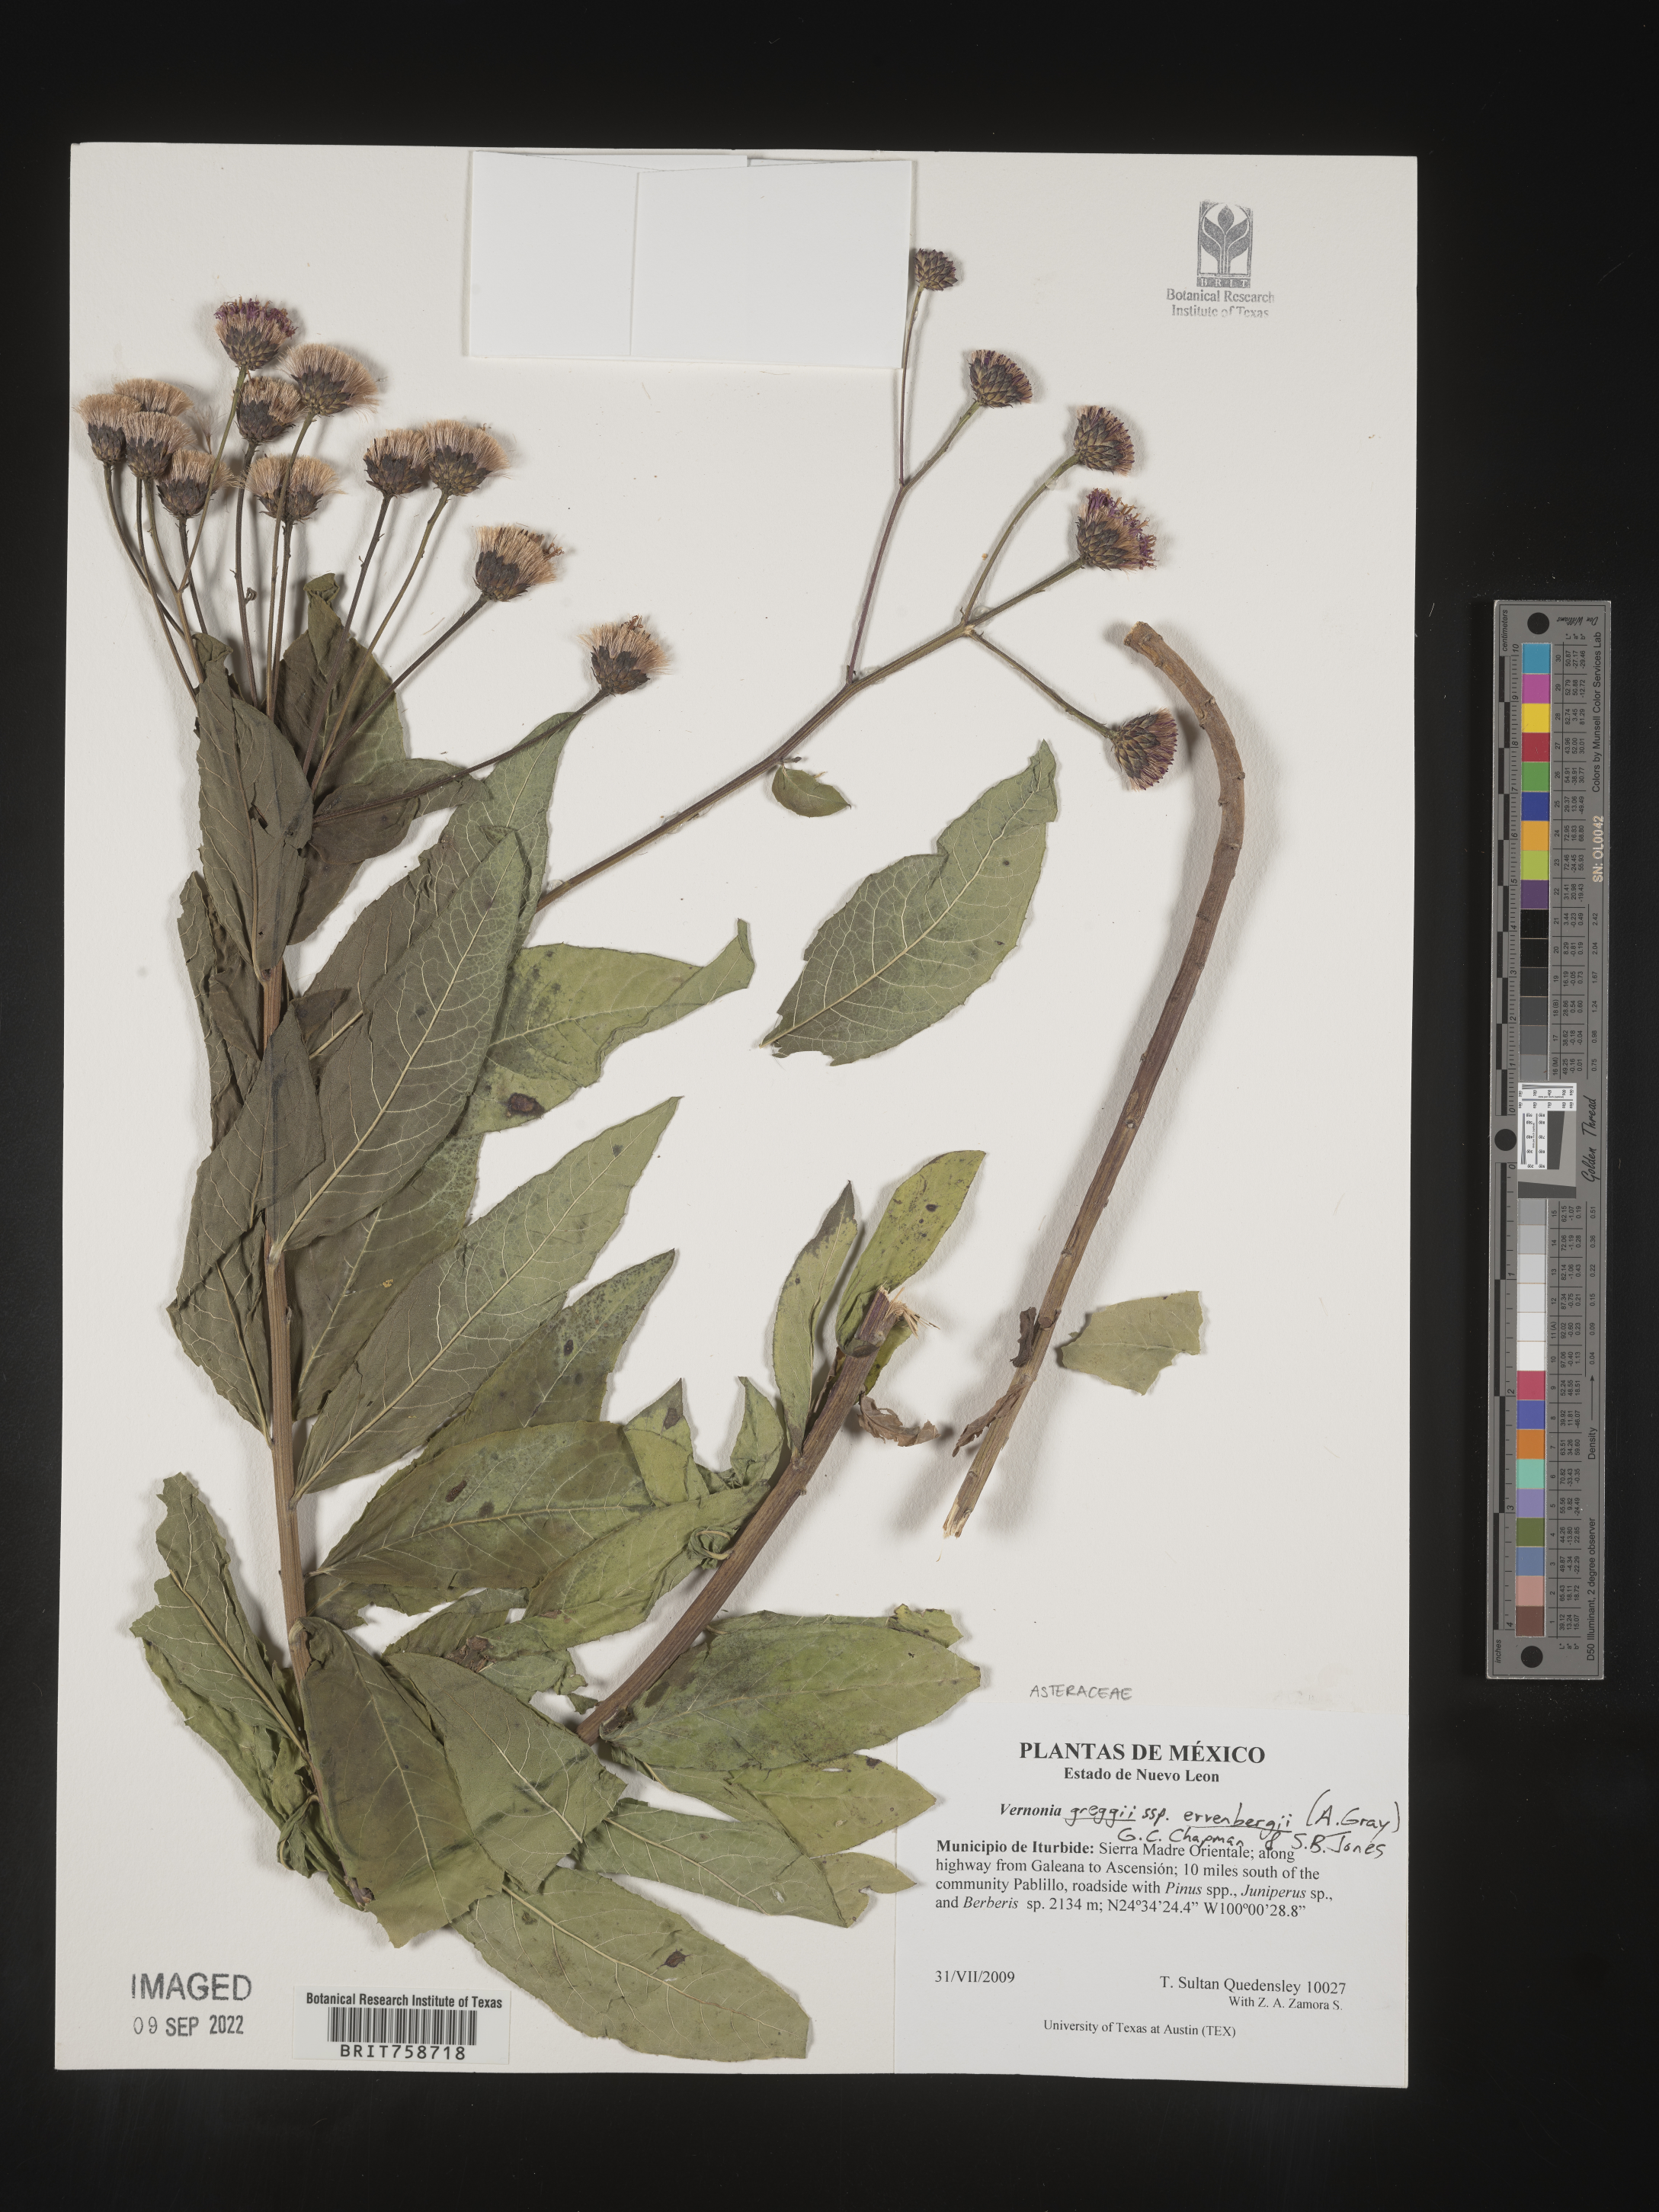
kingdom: Plantae
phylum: Tracheophyta
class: Magnoliopsida
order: Asterales
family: Asteraceae
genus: Vernonia
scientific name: Vernonia
